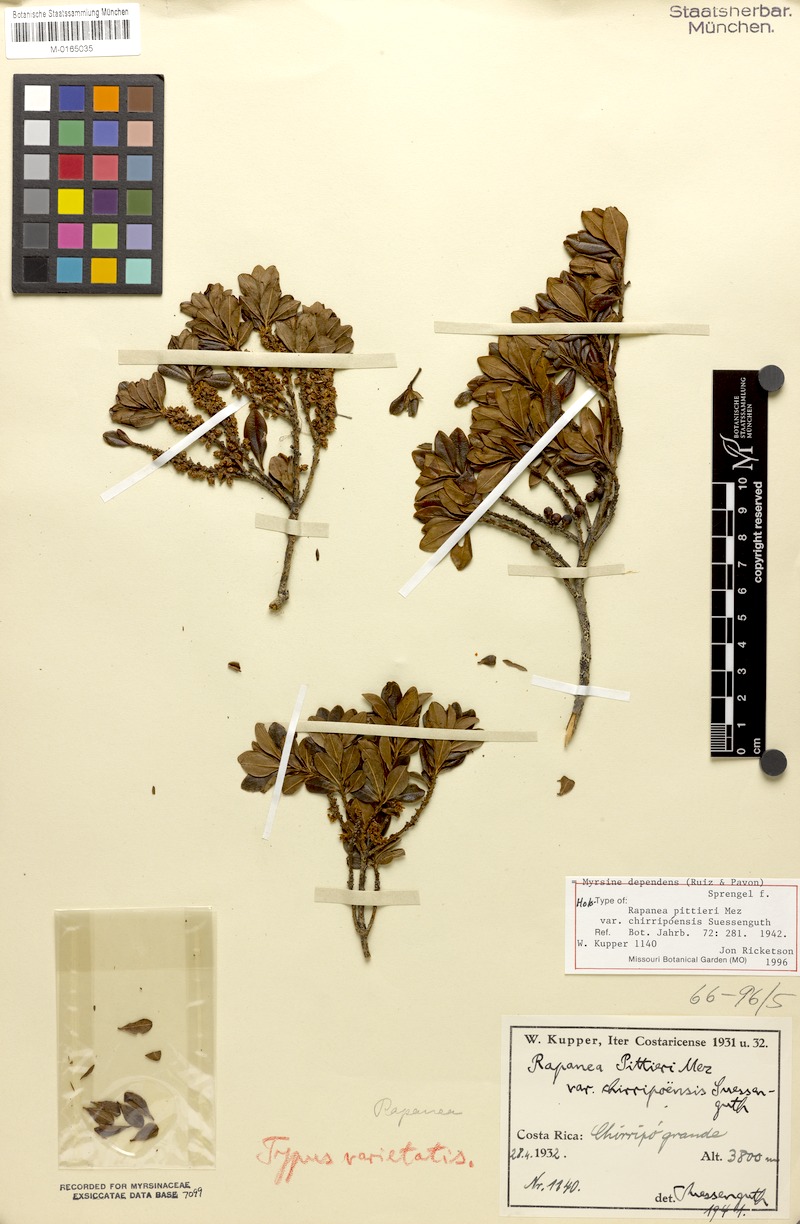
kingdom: Plantae
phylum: Tracheophyta
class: Magnoliopsida
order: Ericales
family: Primulaceae
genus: Myrsine
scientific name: Myrsine dependens
